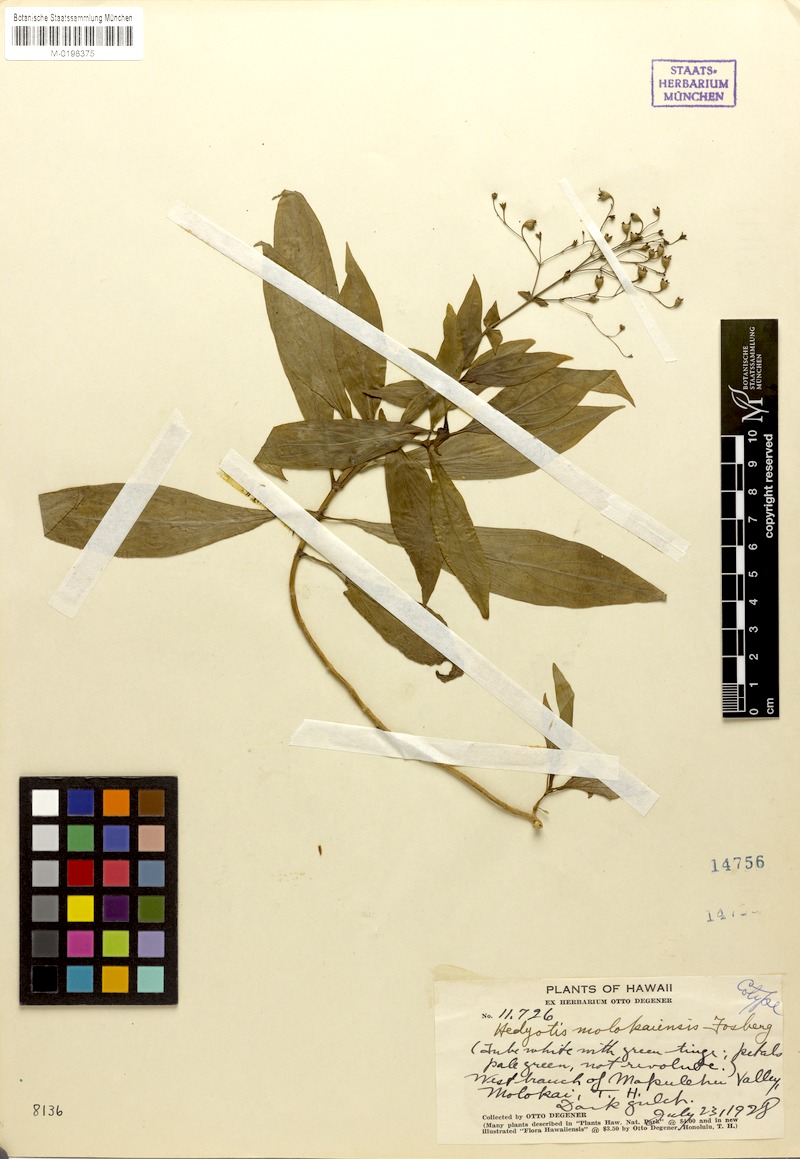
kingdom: Plantae
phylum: Tracheophyta
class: Magnoliopsida
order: Gentianales
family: Rubiaceae
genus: Kadua
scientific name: Kadua laxiflora
